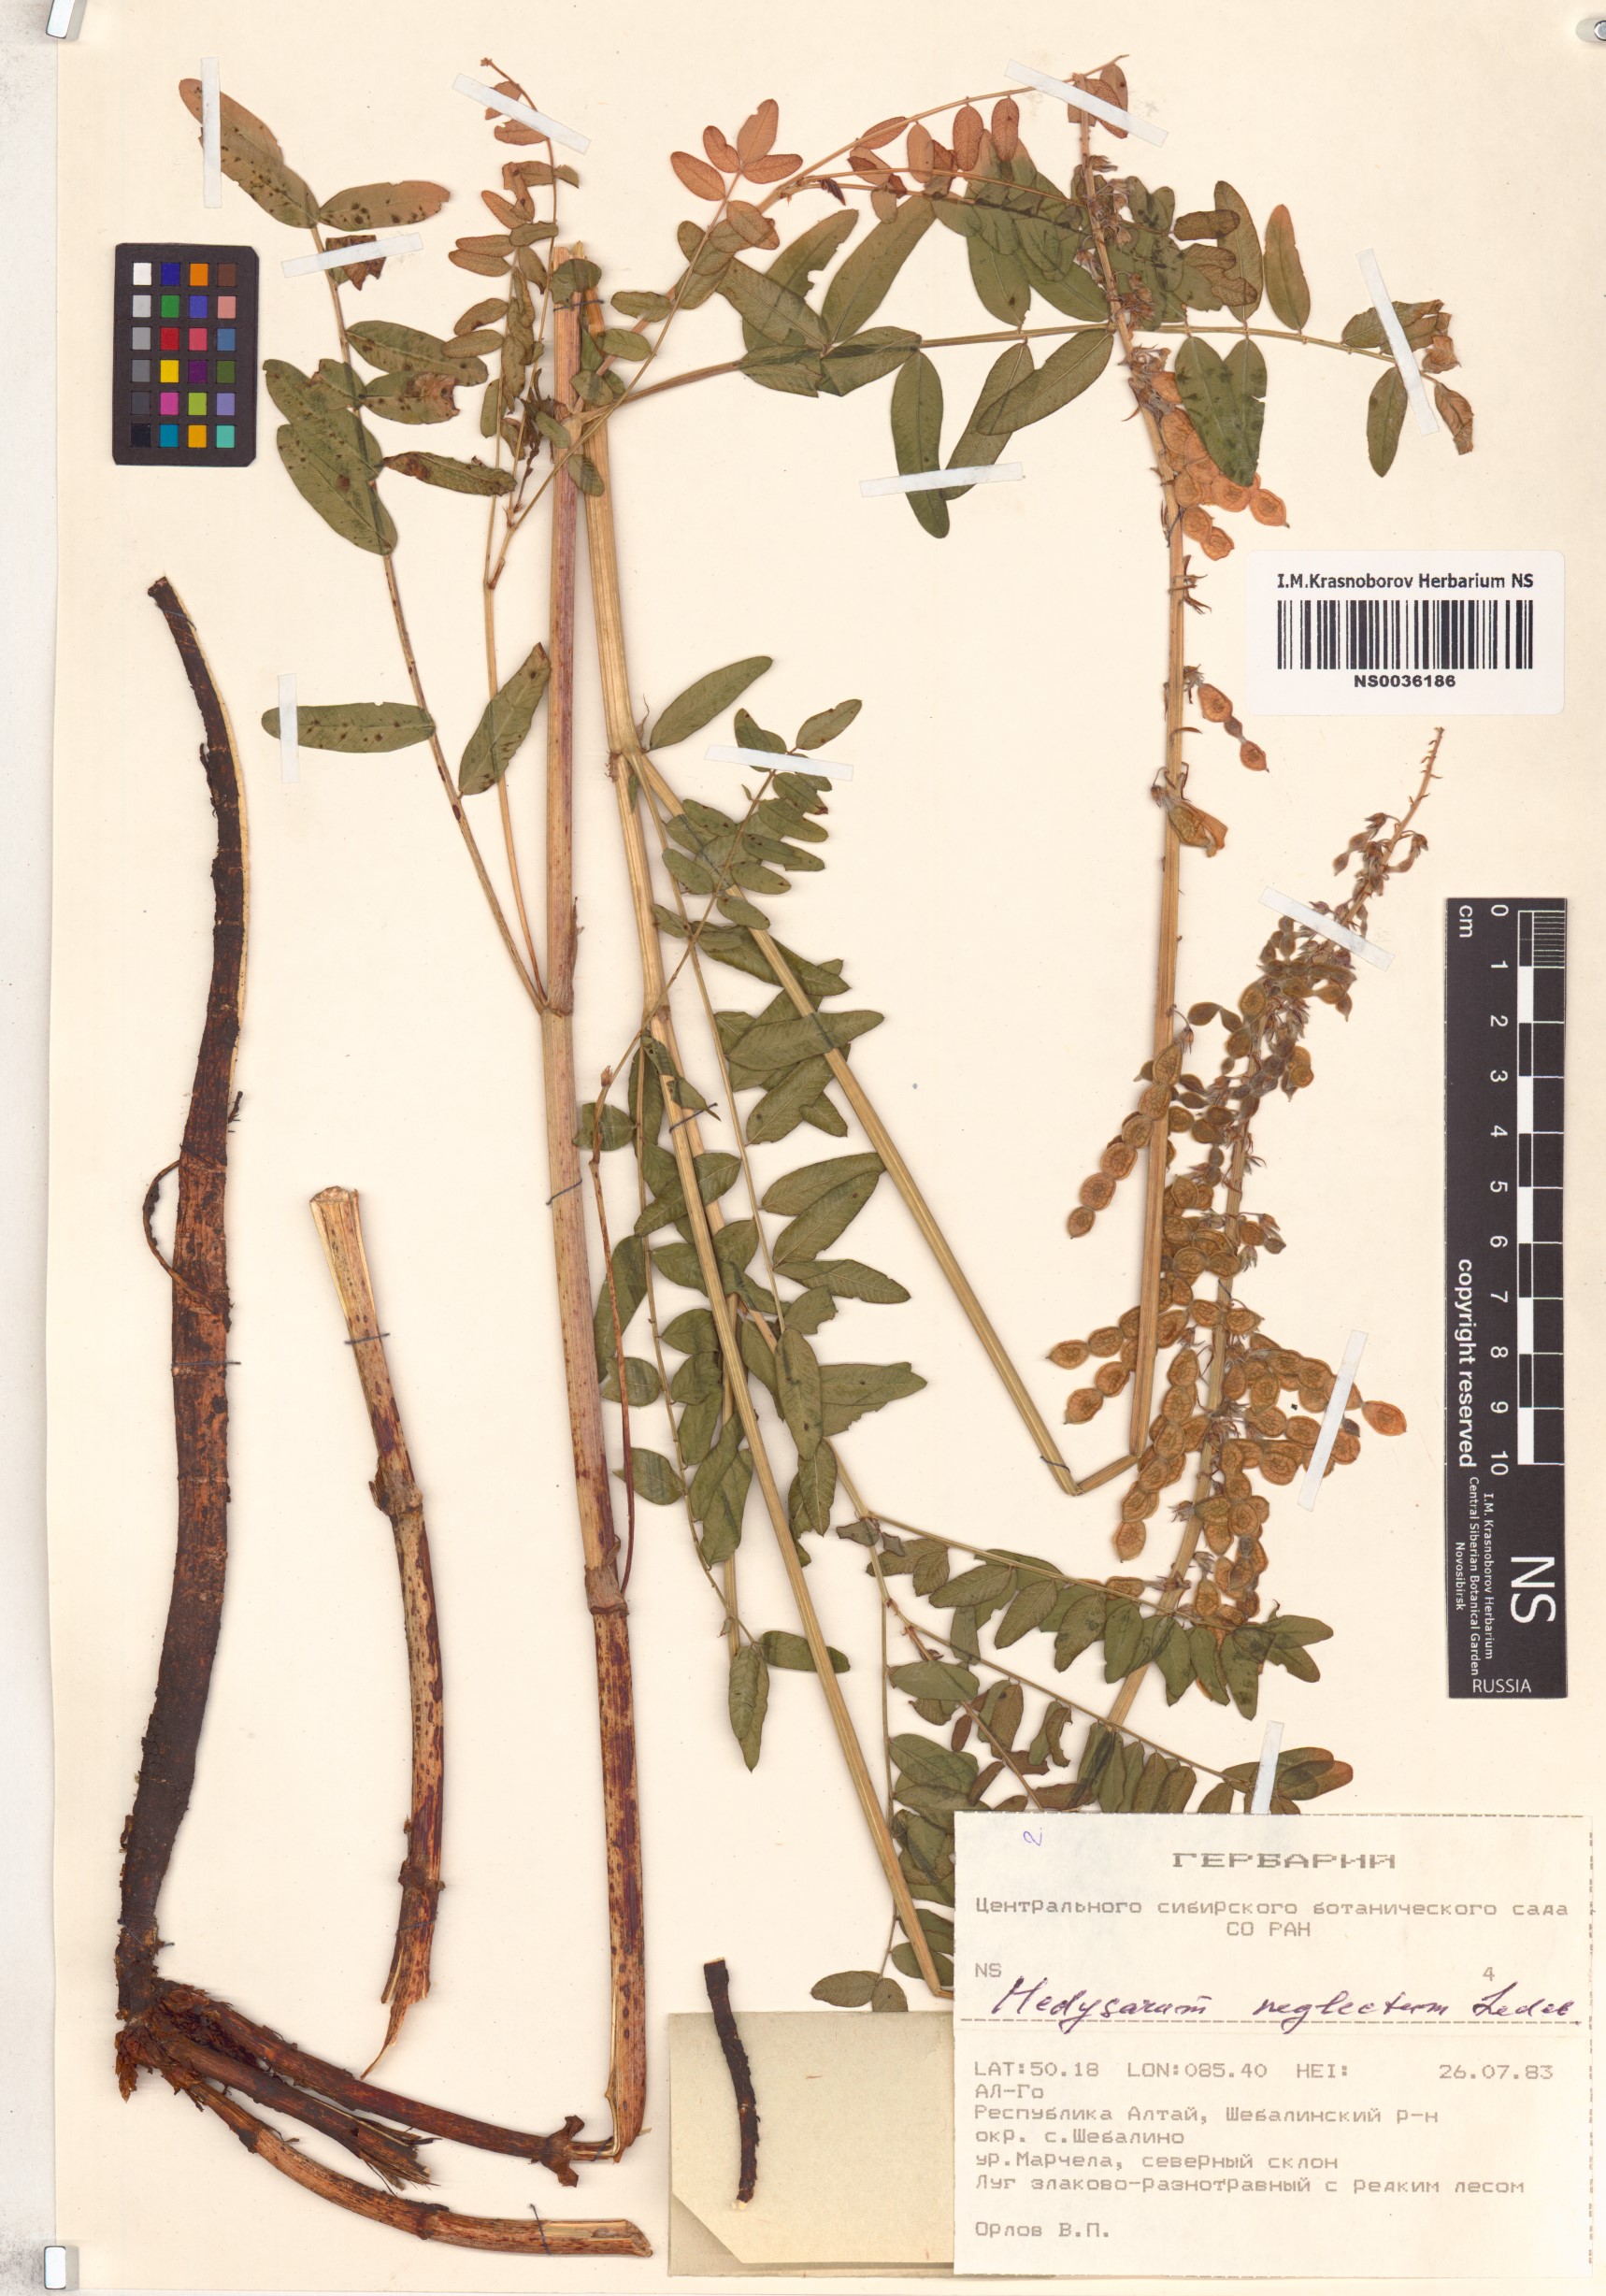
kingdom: Plantae
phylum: Tracheophyta
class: Magnoliopsida
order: Fabales
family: Fabaceae
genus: Hedysarum
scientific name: Hedysarum neglectum
